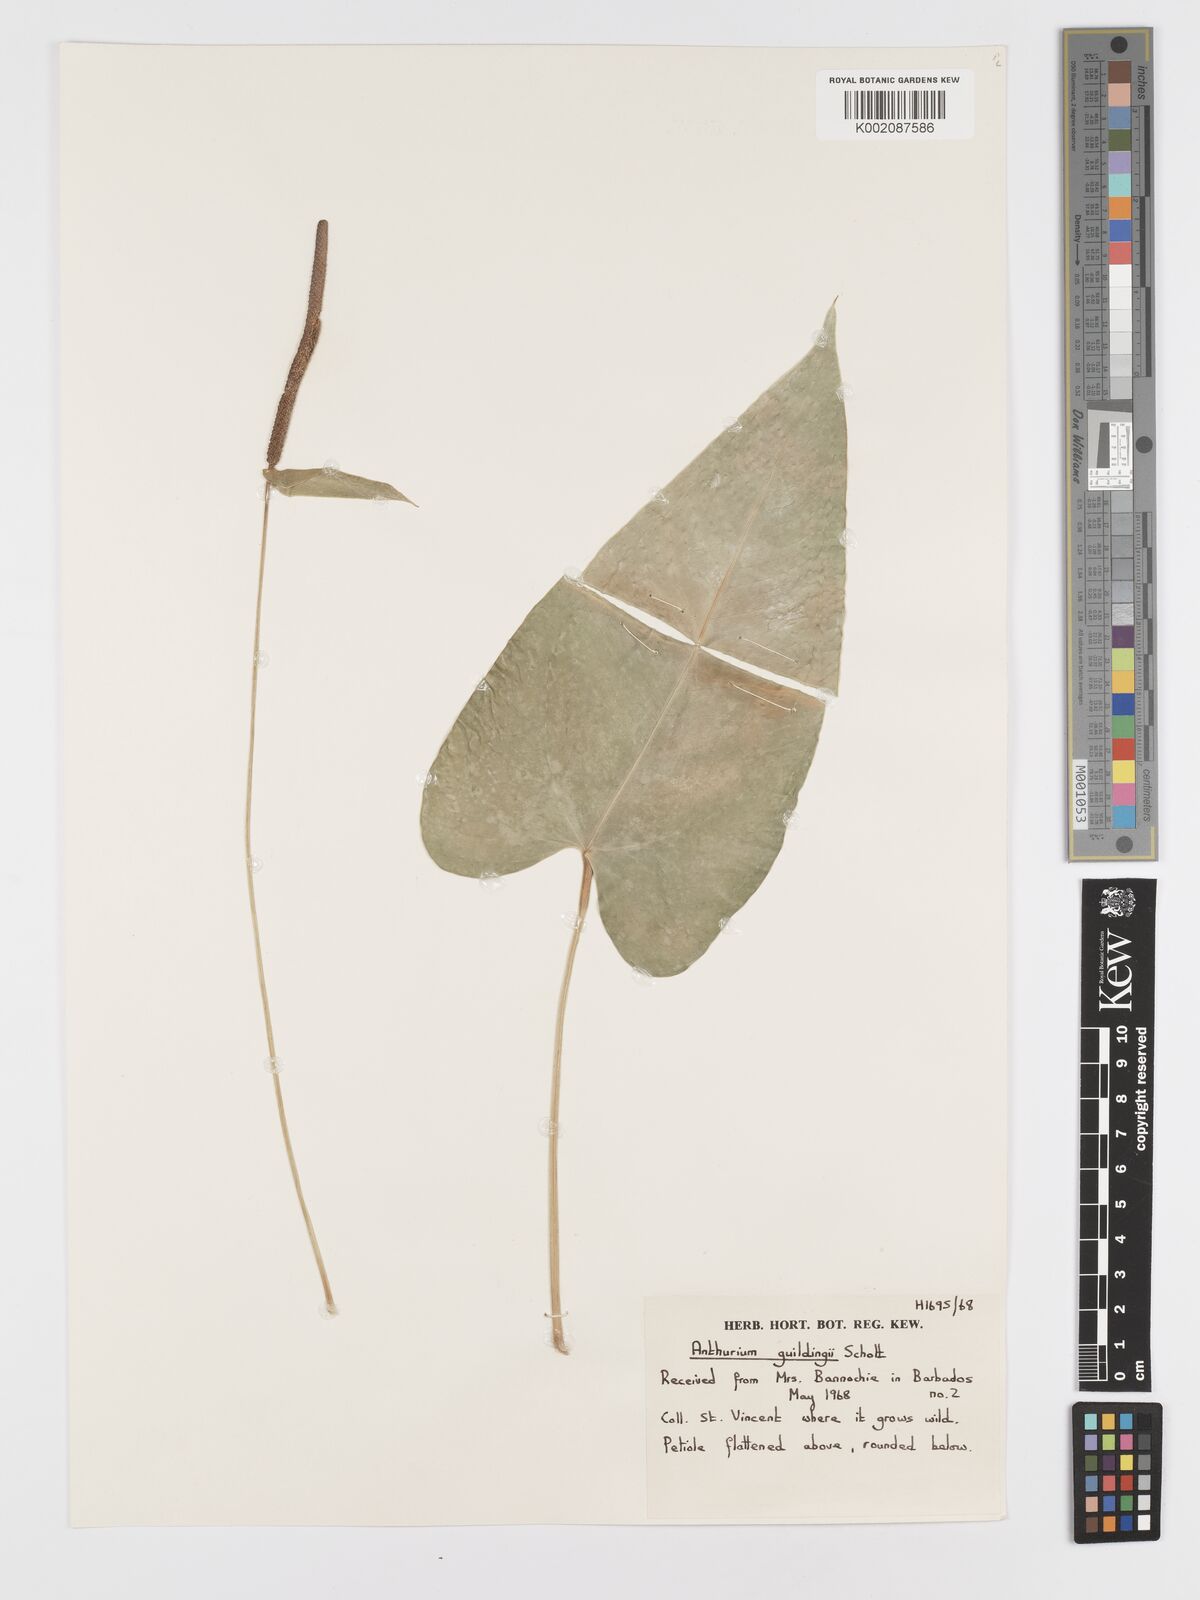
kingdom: Plantae
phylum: Tracheophyta
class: Liliopsida
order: Alismatales
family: Araceae
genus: Anthurium
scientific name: Anthurium cordatum
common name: Monkey tail
